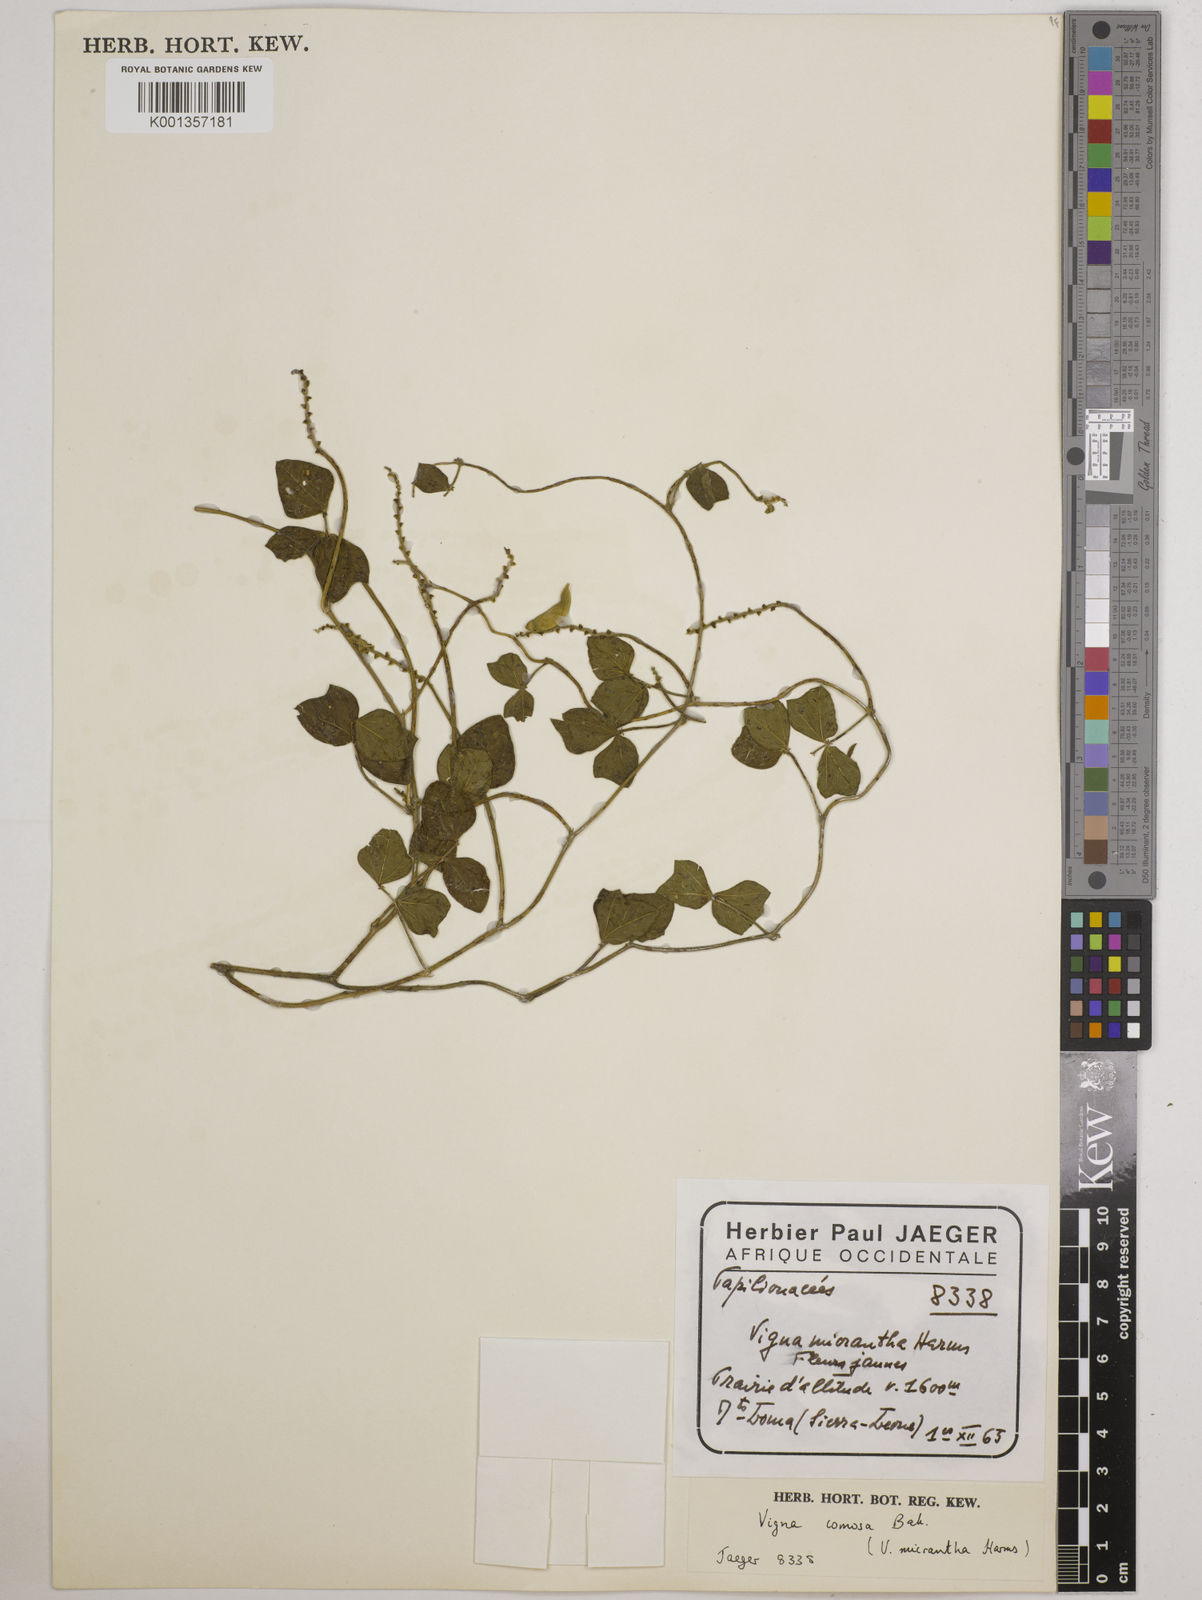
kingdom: Plantae
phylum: Tracheophyta
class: Magnoliopsida
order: Fabales
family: Fabaceae
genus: Vigna
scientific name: Vigna comosa
